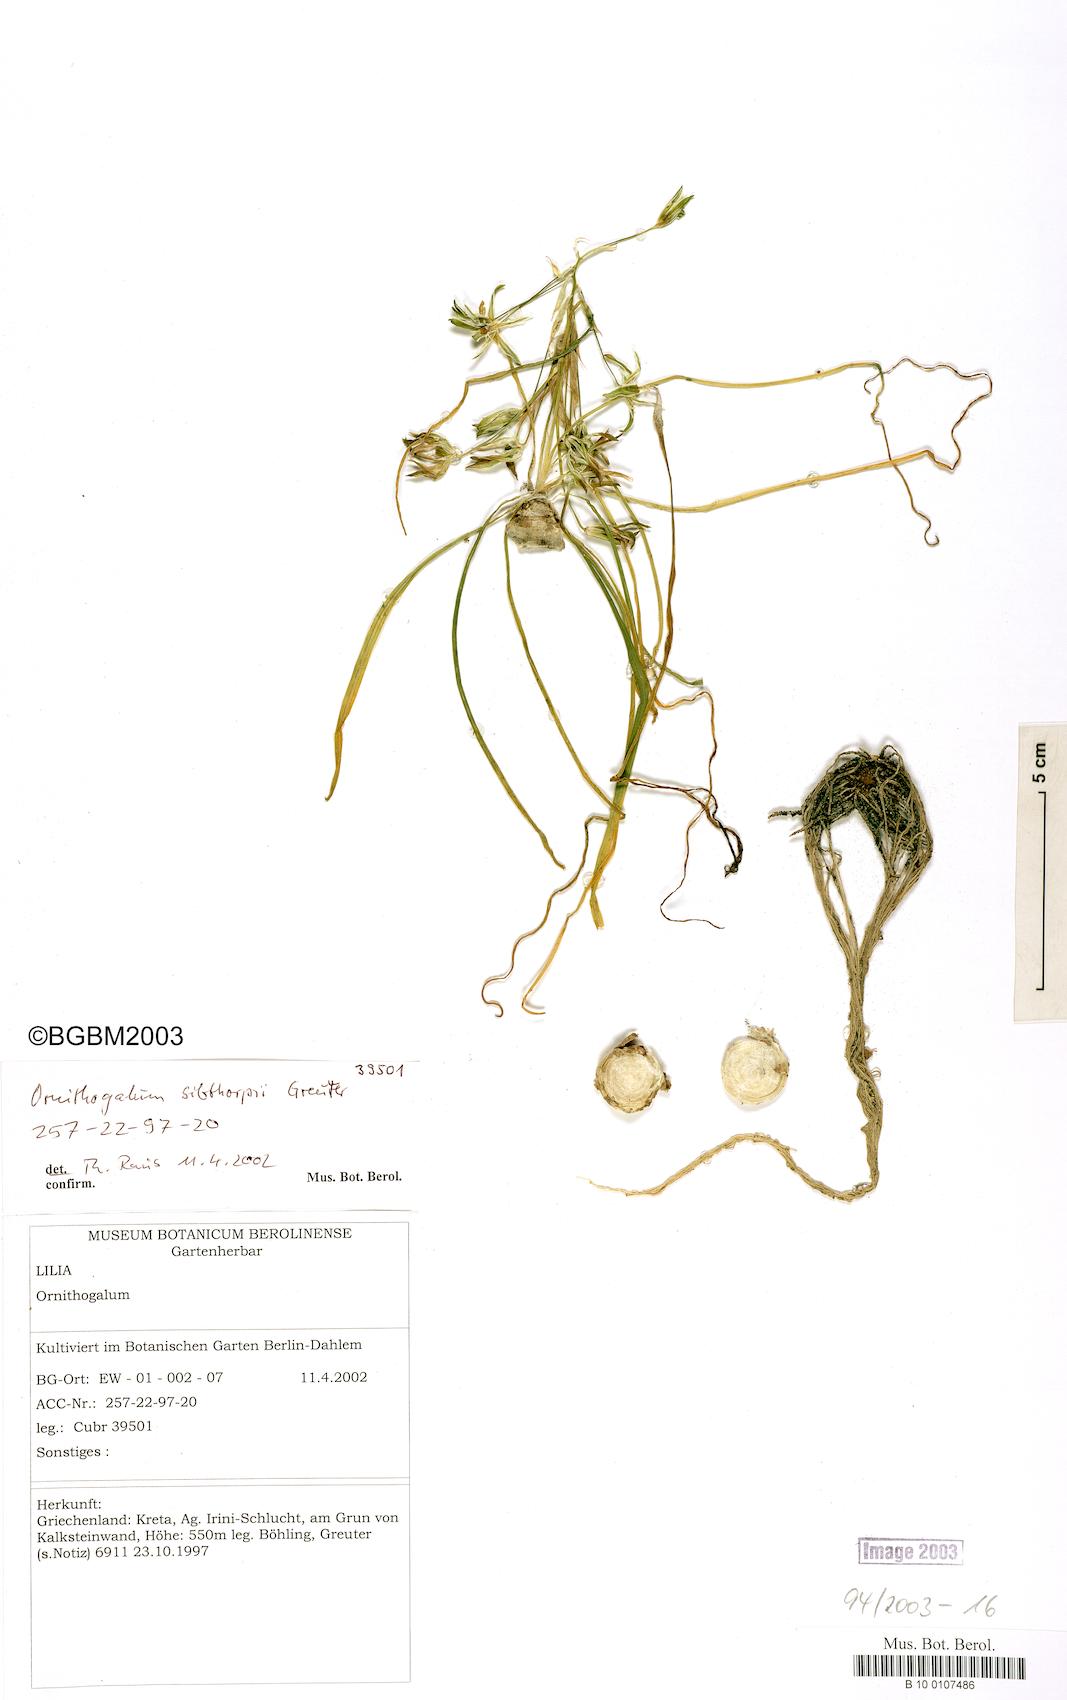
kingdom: Plantae
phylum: Tracheophyta
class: Liliopsida
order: Asparagales
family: Asparagaceae
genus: Ornithogalum
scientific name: Ornithogalum collinum
